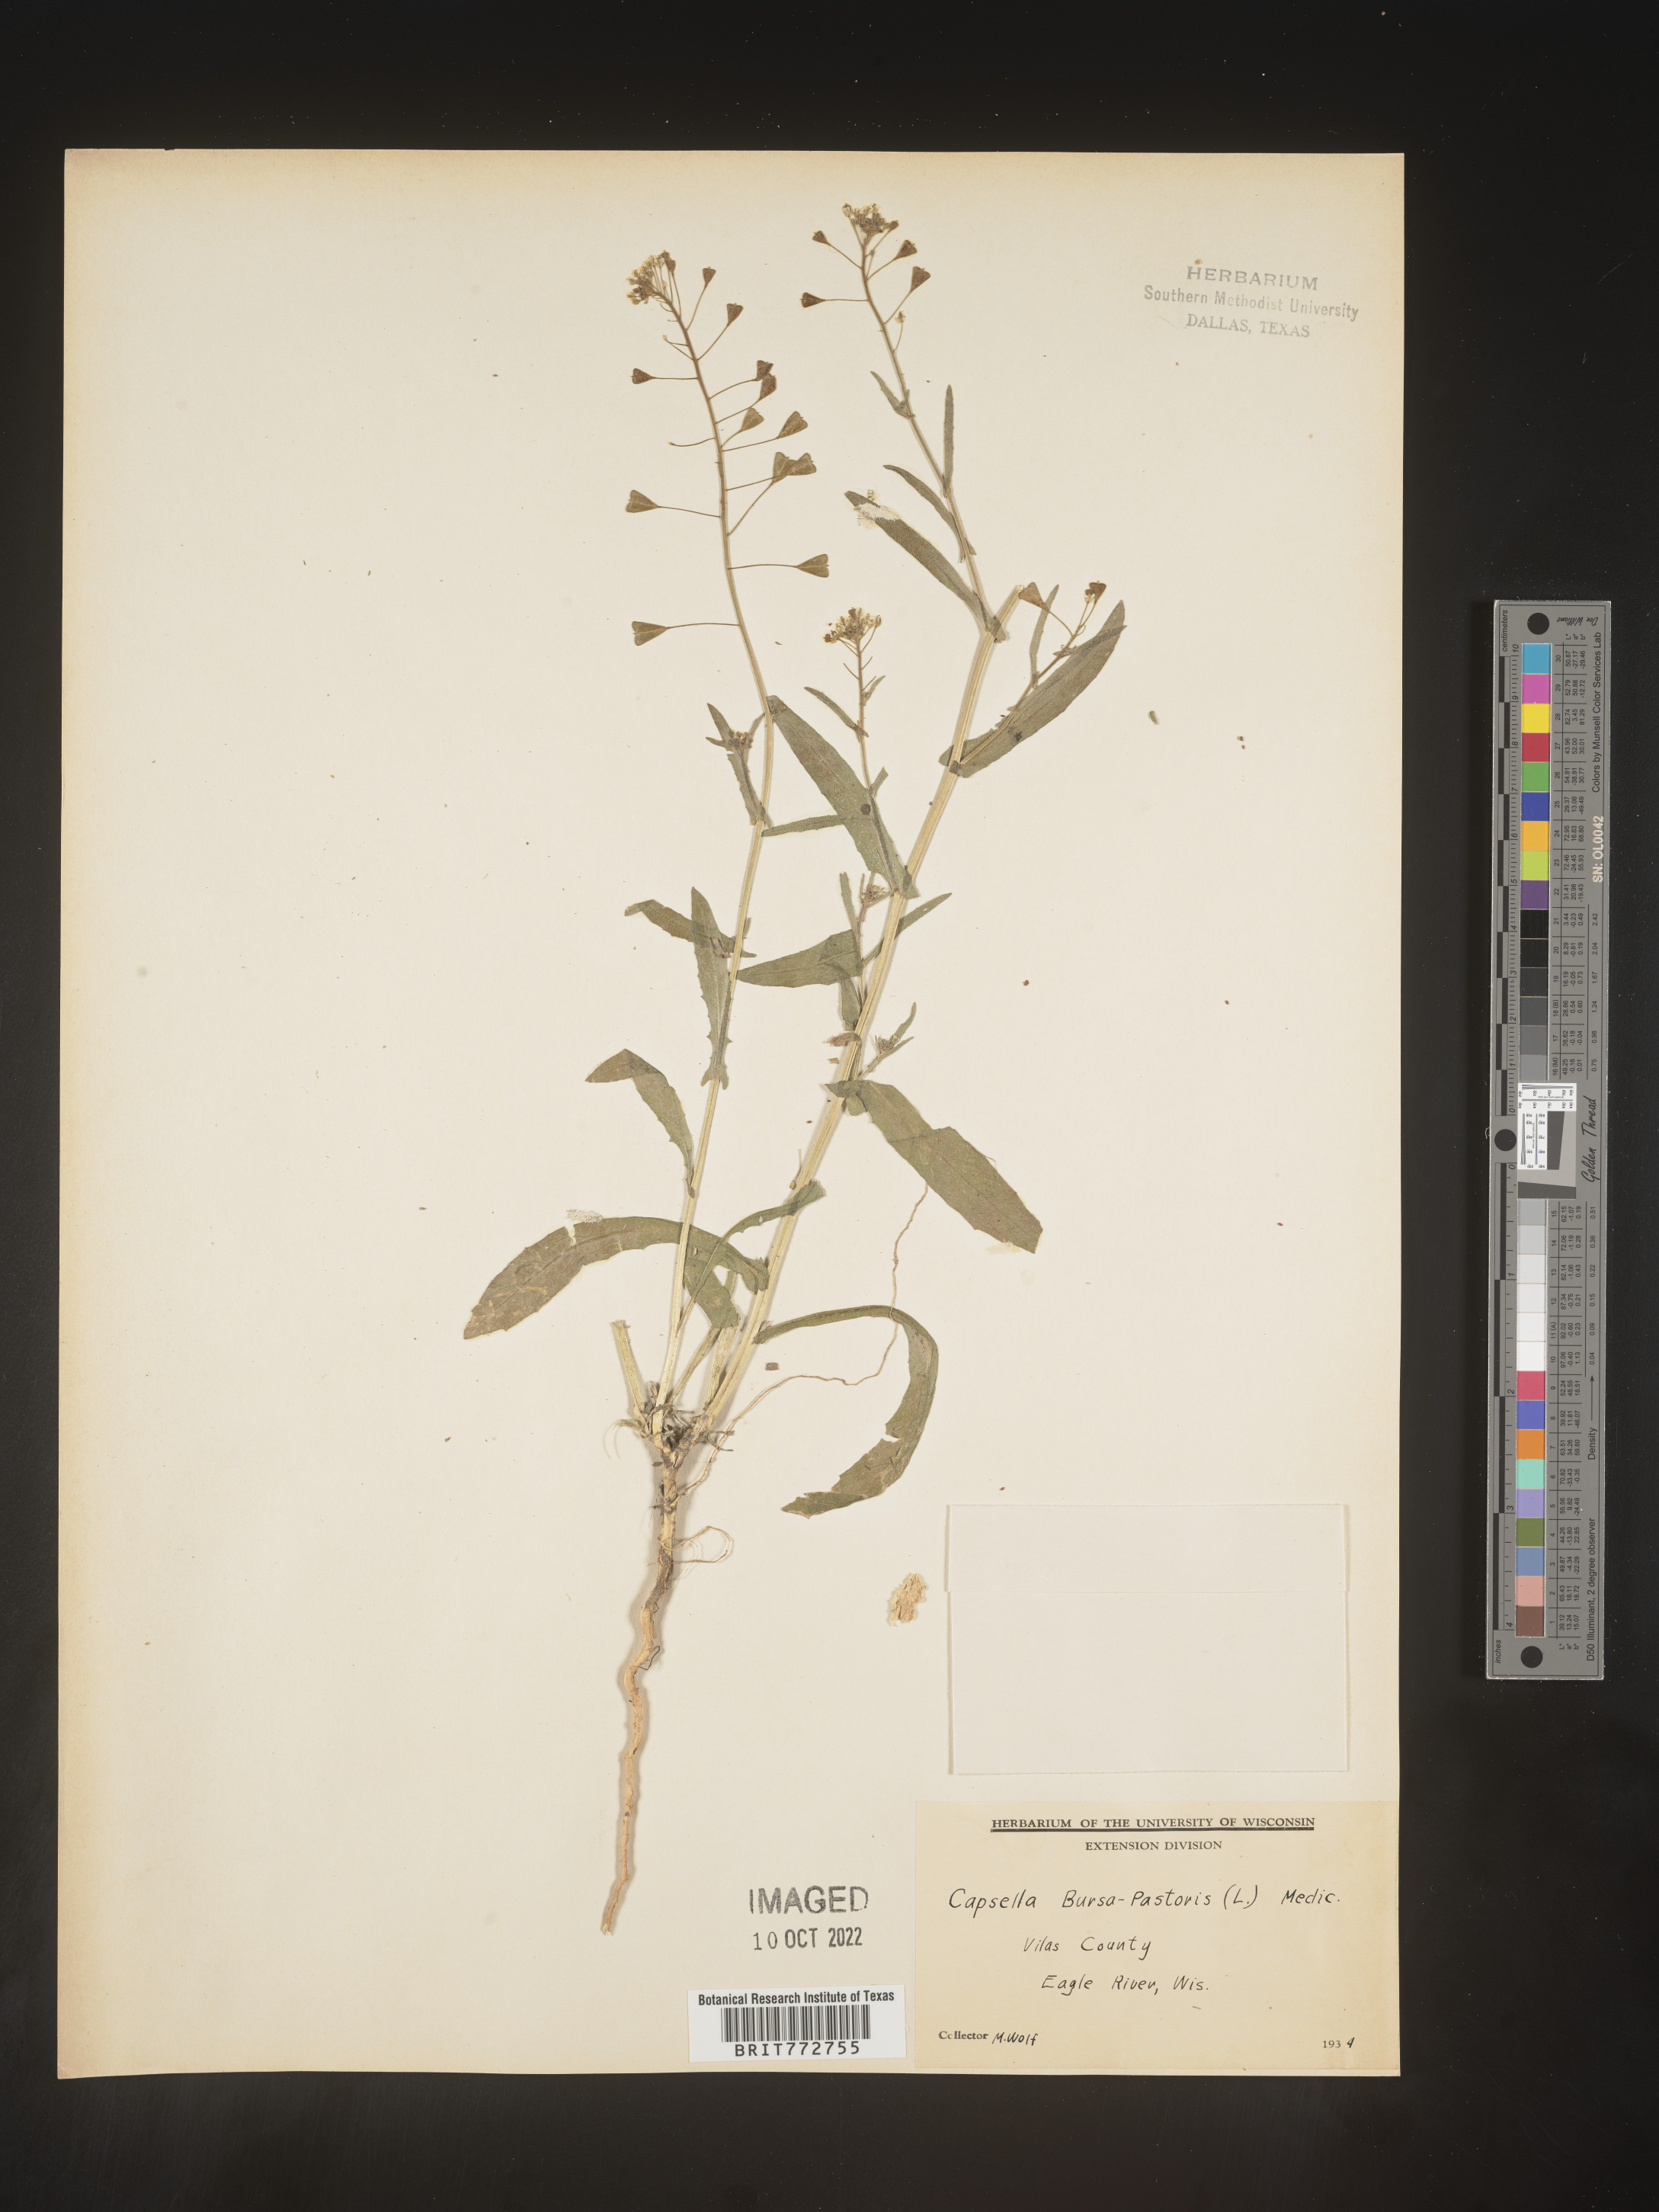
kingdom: Plantae
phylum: Tracheophyta
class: Magnoliopsida
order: Brassicales
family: Brassicaceae
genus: Capsella
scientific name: Capsella bursa-pastoris
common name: Shepherd's purse
